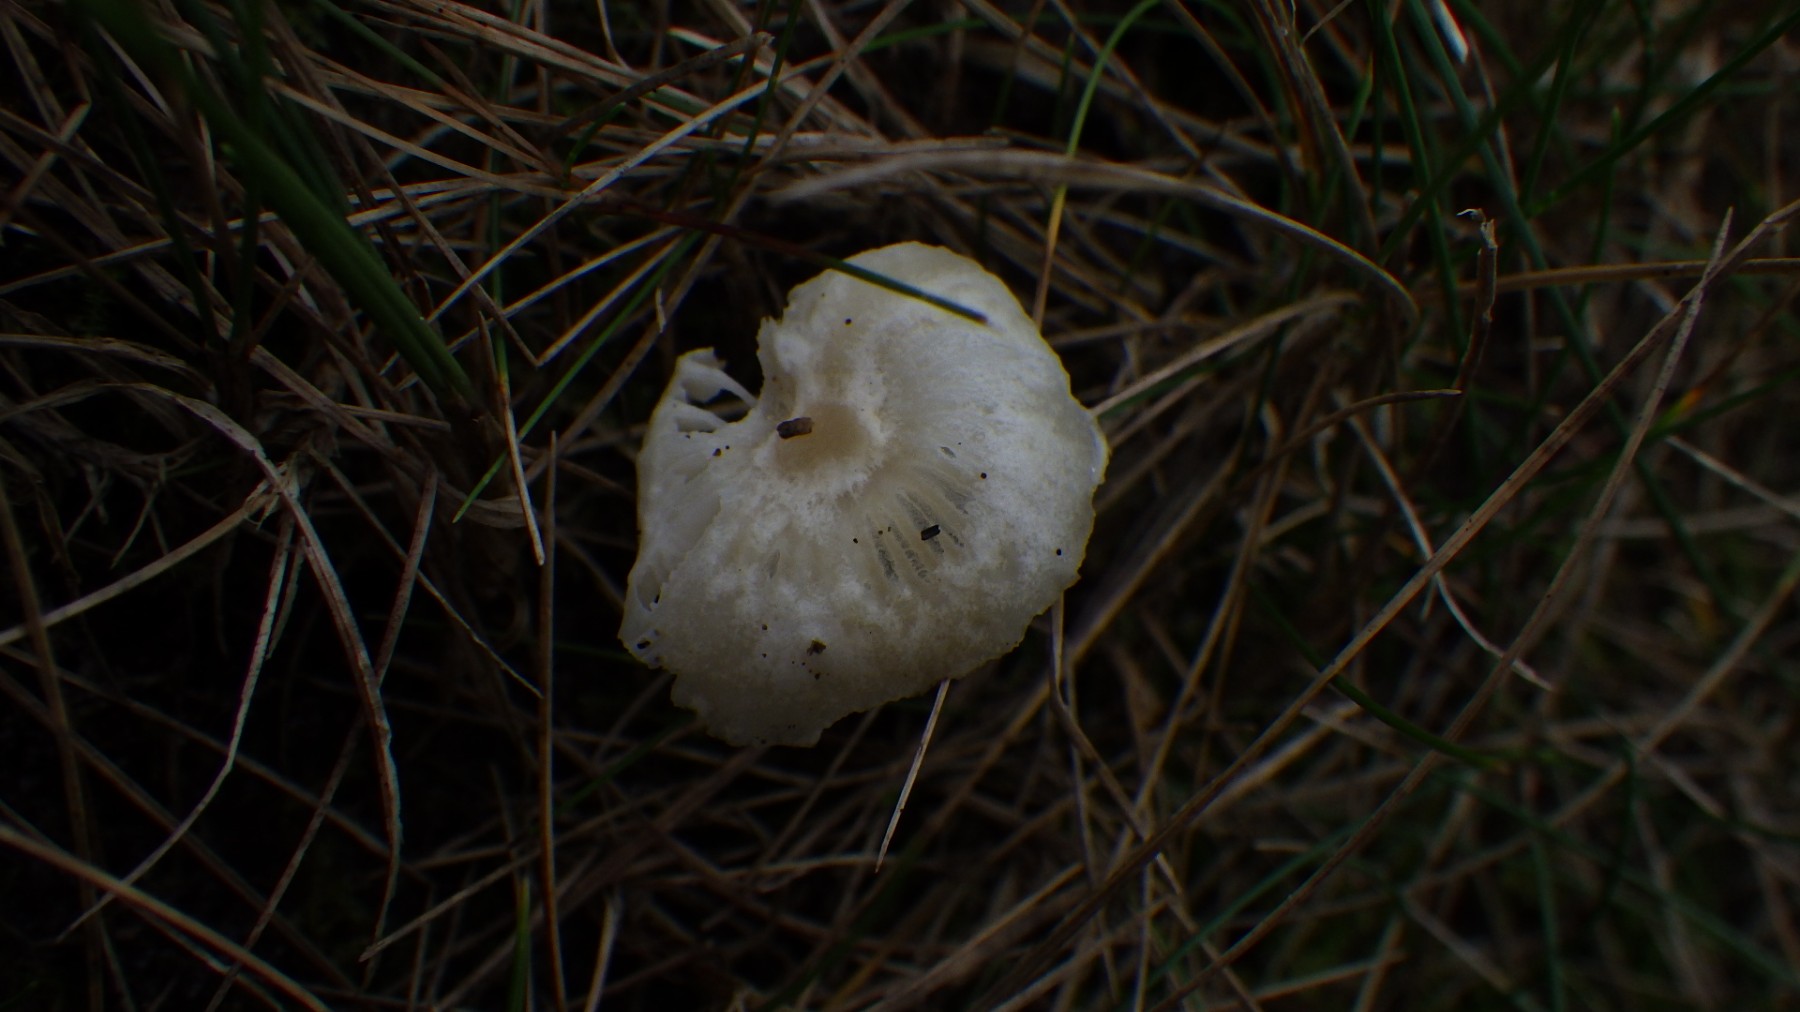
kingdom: Fungi
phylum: Basidiomycota
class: Agaricomycetes
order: Agaricales
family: Hygrophoraceae
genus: Cuphophyllus
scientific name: Cuphophyllus
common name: vokshat
